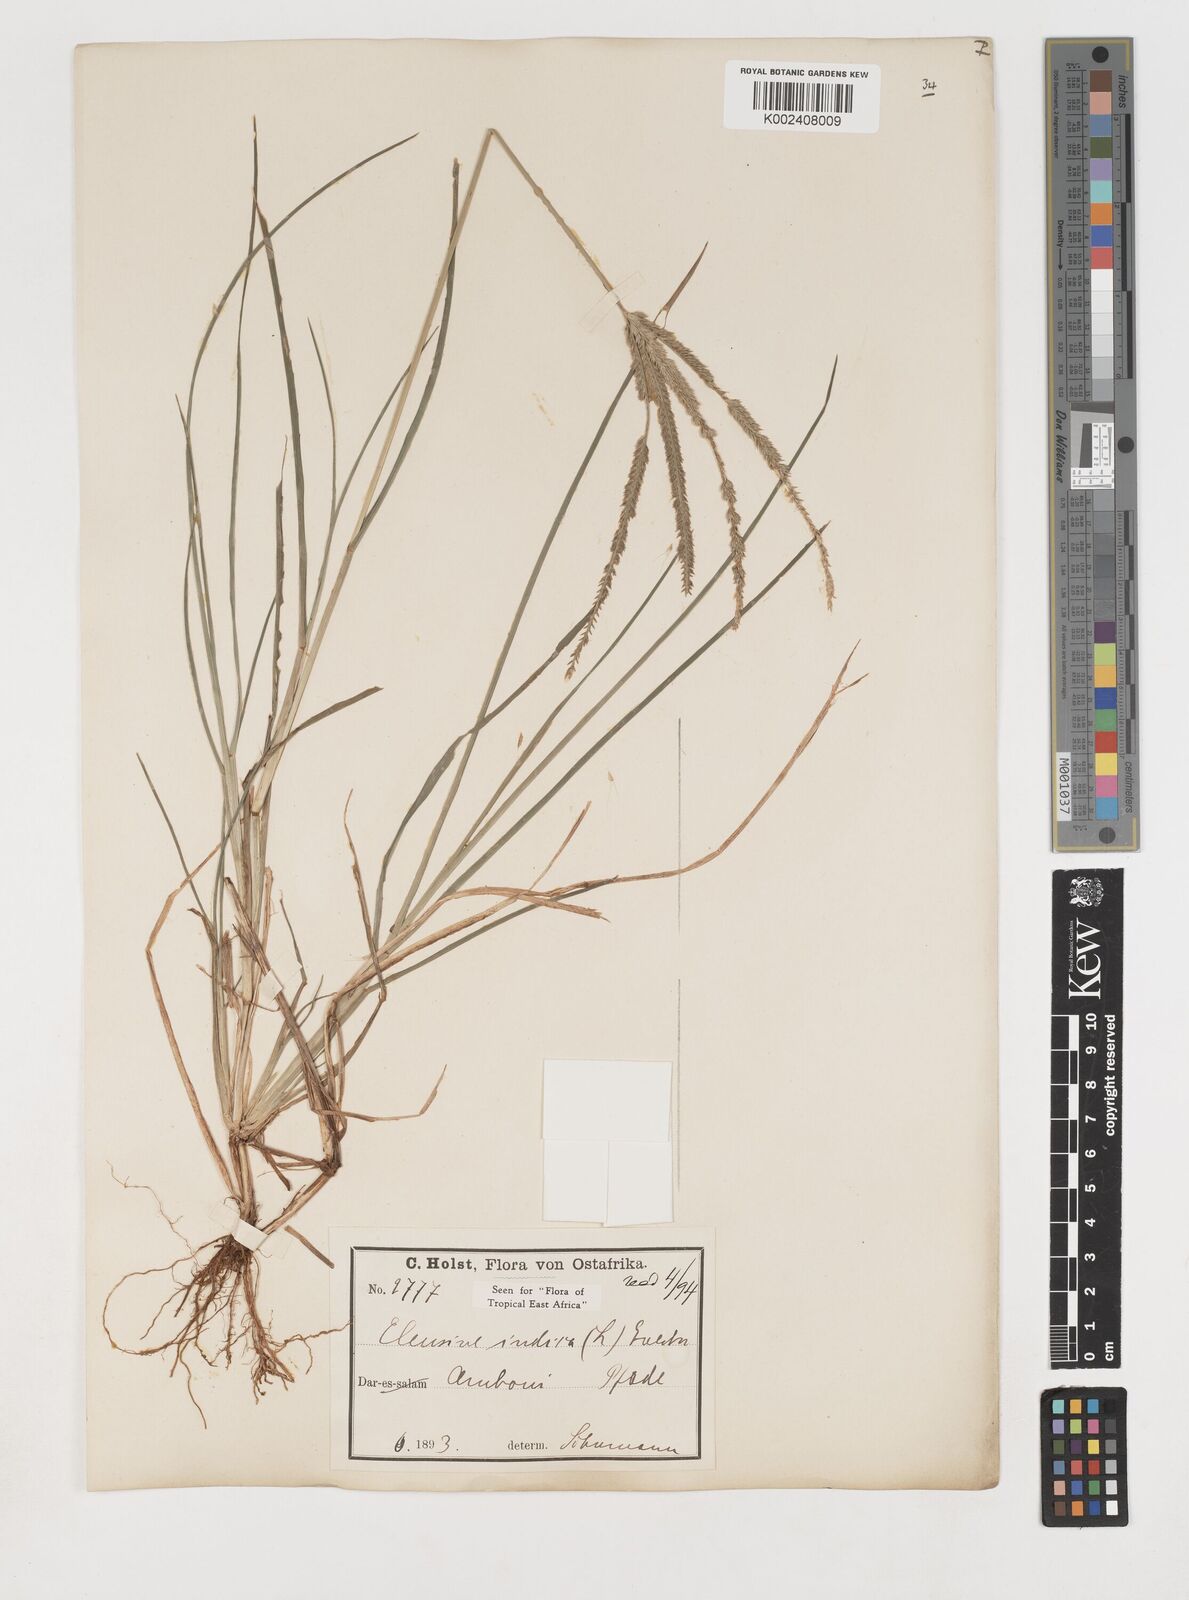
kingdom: Plantae
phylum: Tracheophyta
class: Liliopsida
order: Poales
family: Poaceae
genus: Eleusine
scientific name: Eleusine indica
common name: Yard-grass
